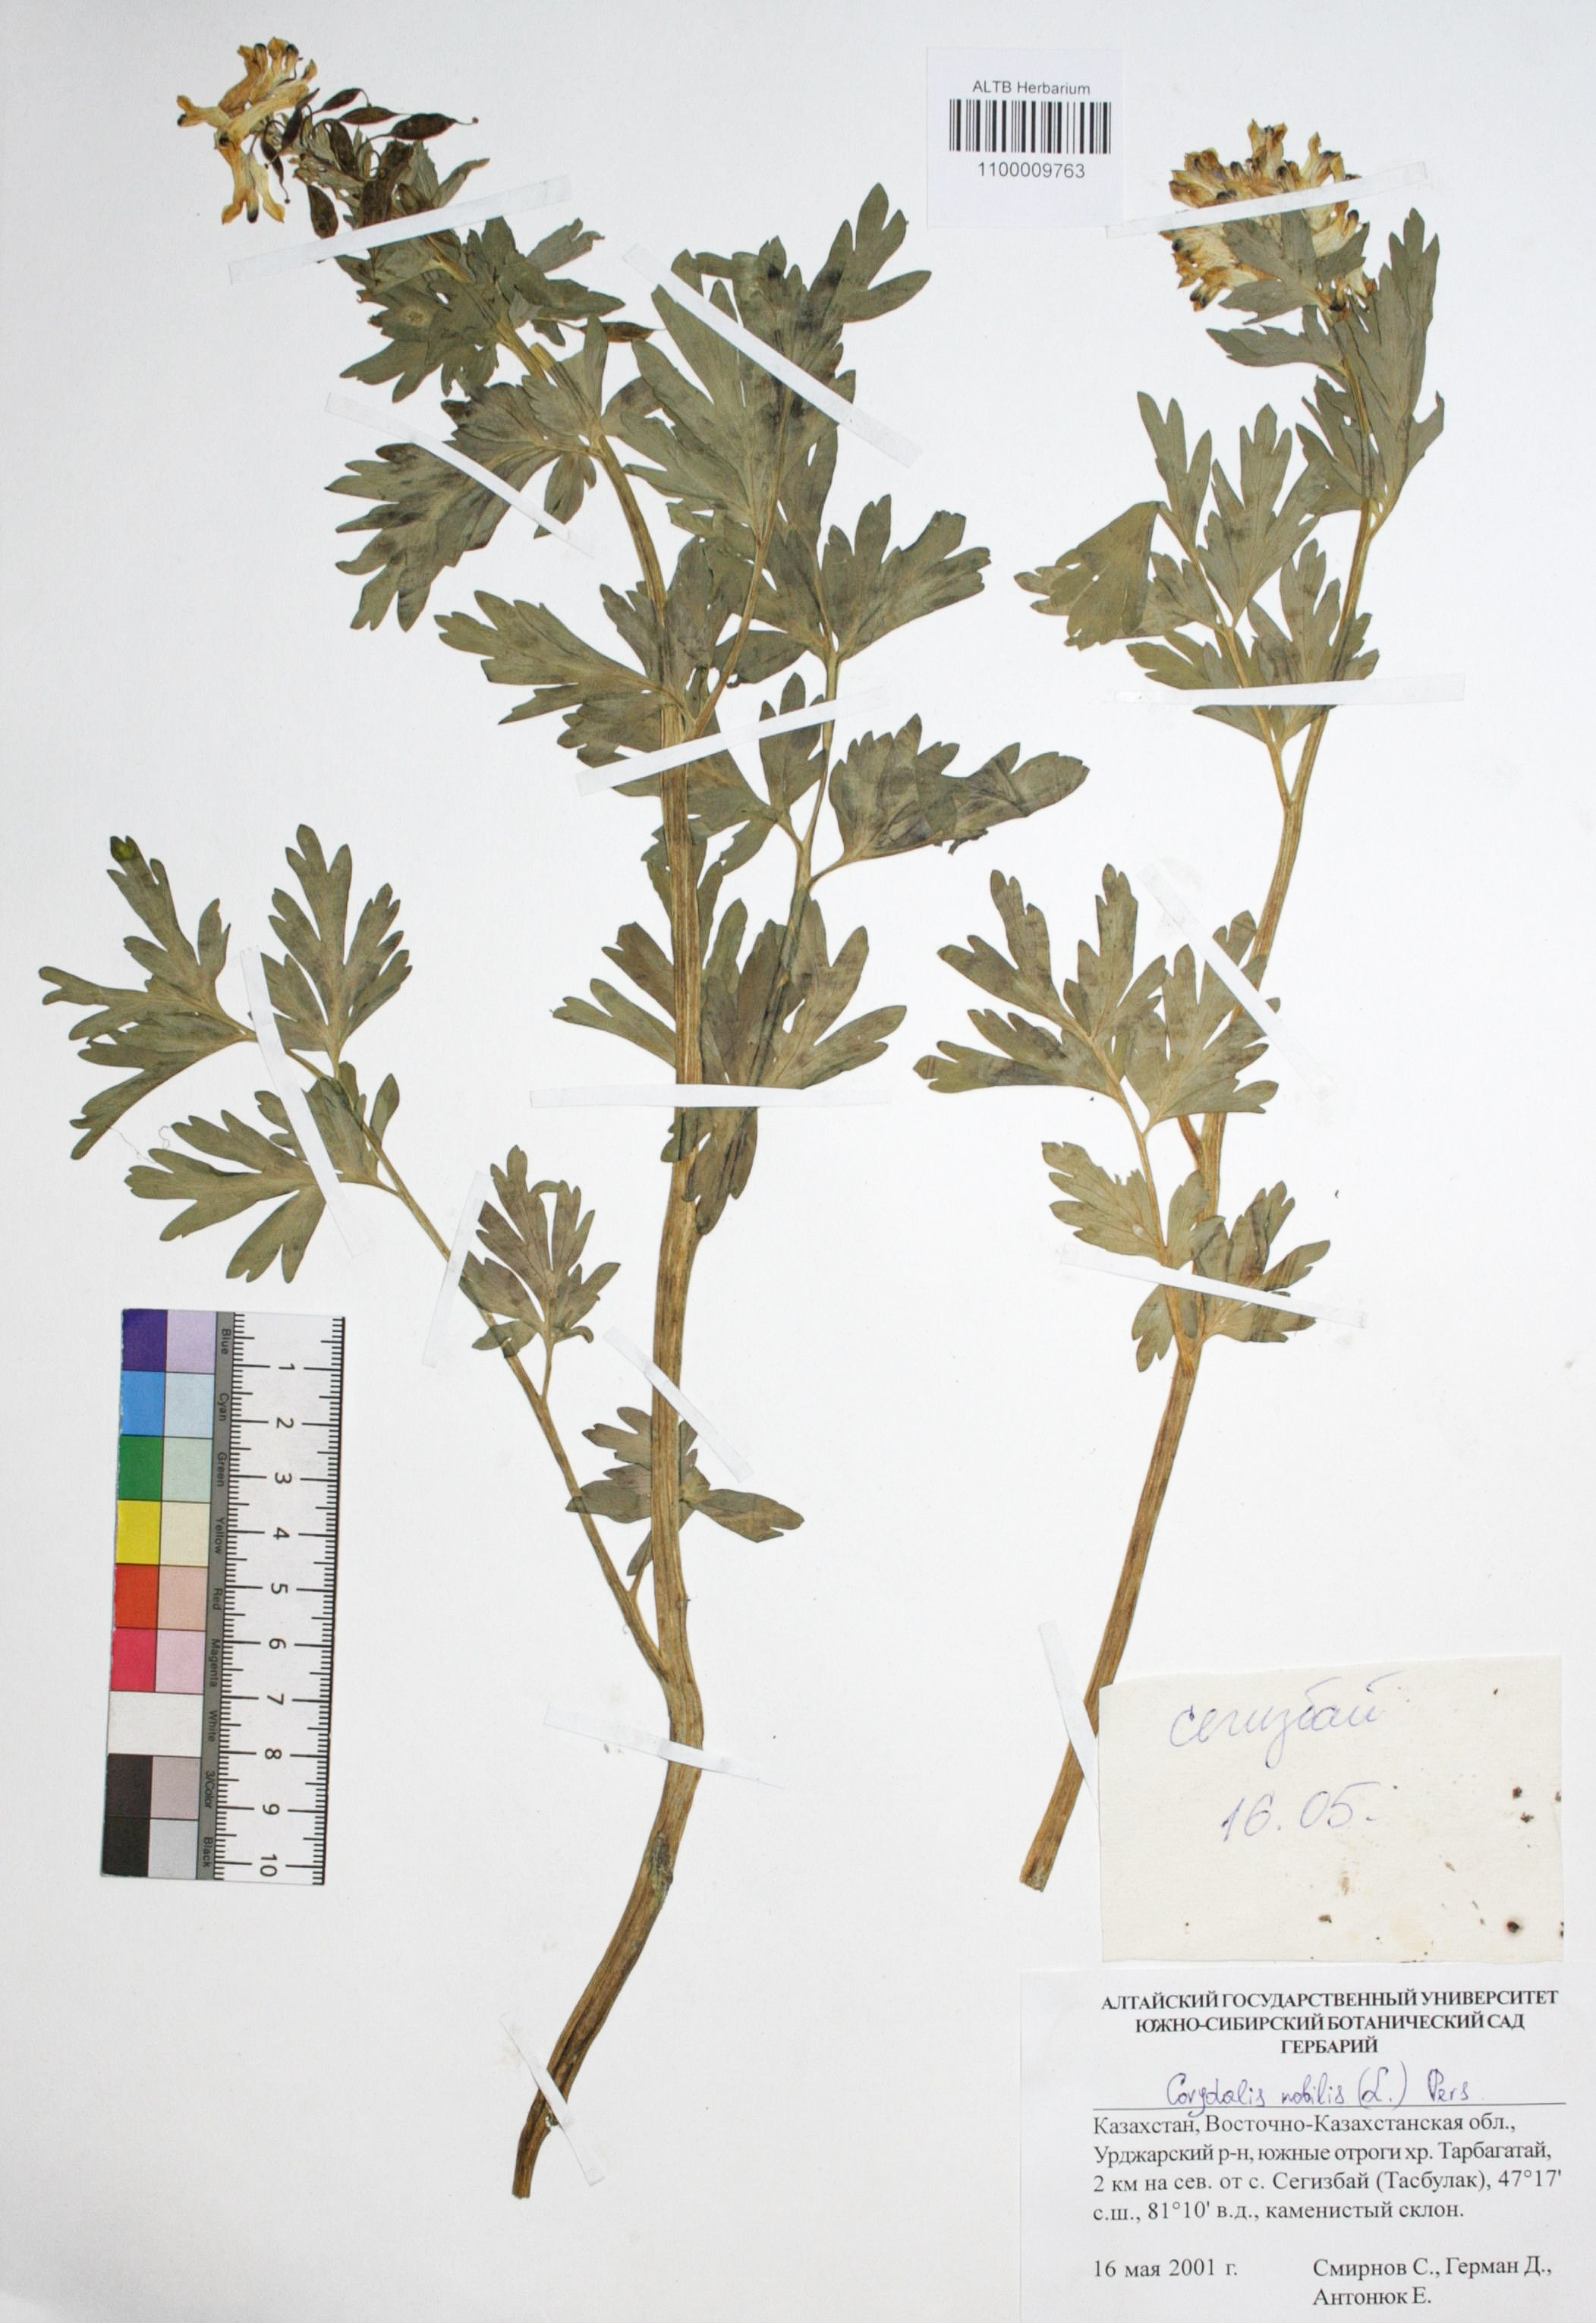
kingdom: Plantae
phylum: Tracheophyta
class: Magnoliopsida
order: Ranunculales
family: Papaveraceae
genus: Corydalis
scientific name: Corydalis nobilis
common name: Siberian corydalis
